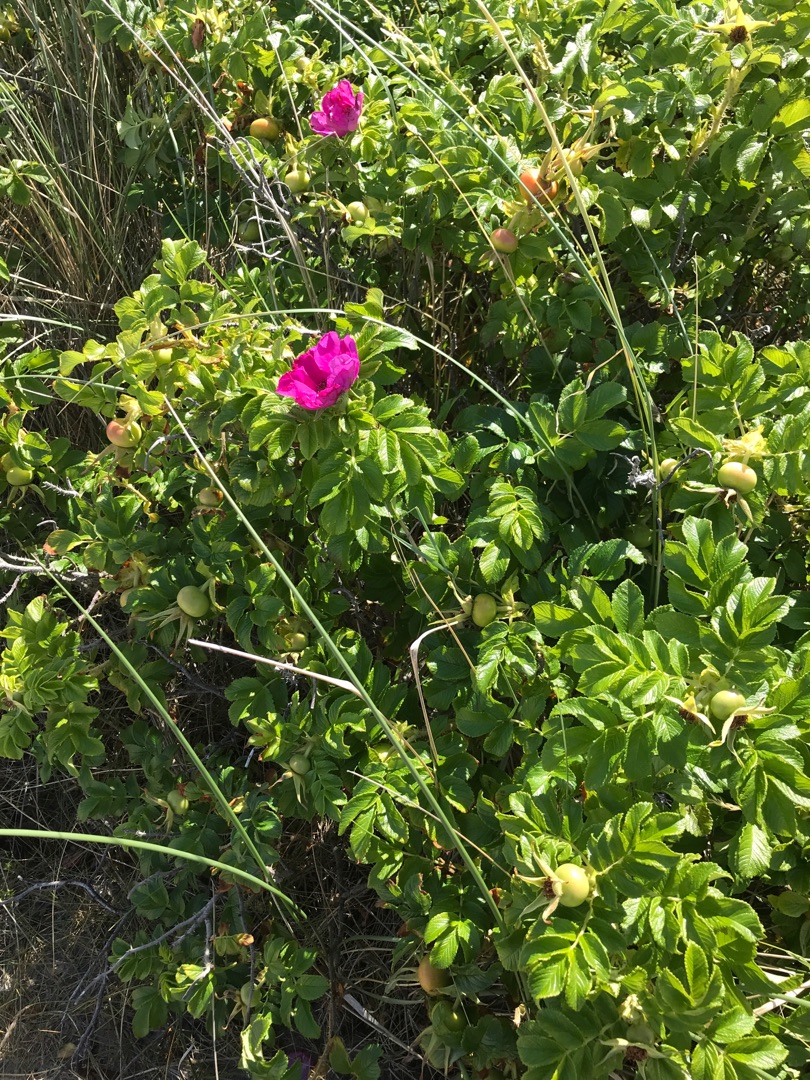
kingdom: Plantae
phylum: Tracheophyta
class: Magnoliopsida
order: Rosales
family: Rosaceae
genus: Rosa
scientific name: Rosa rugosa
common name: Rynket rose
